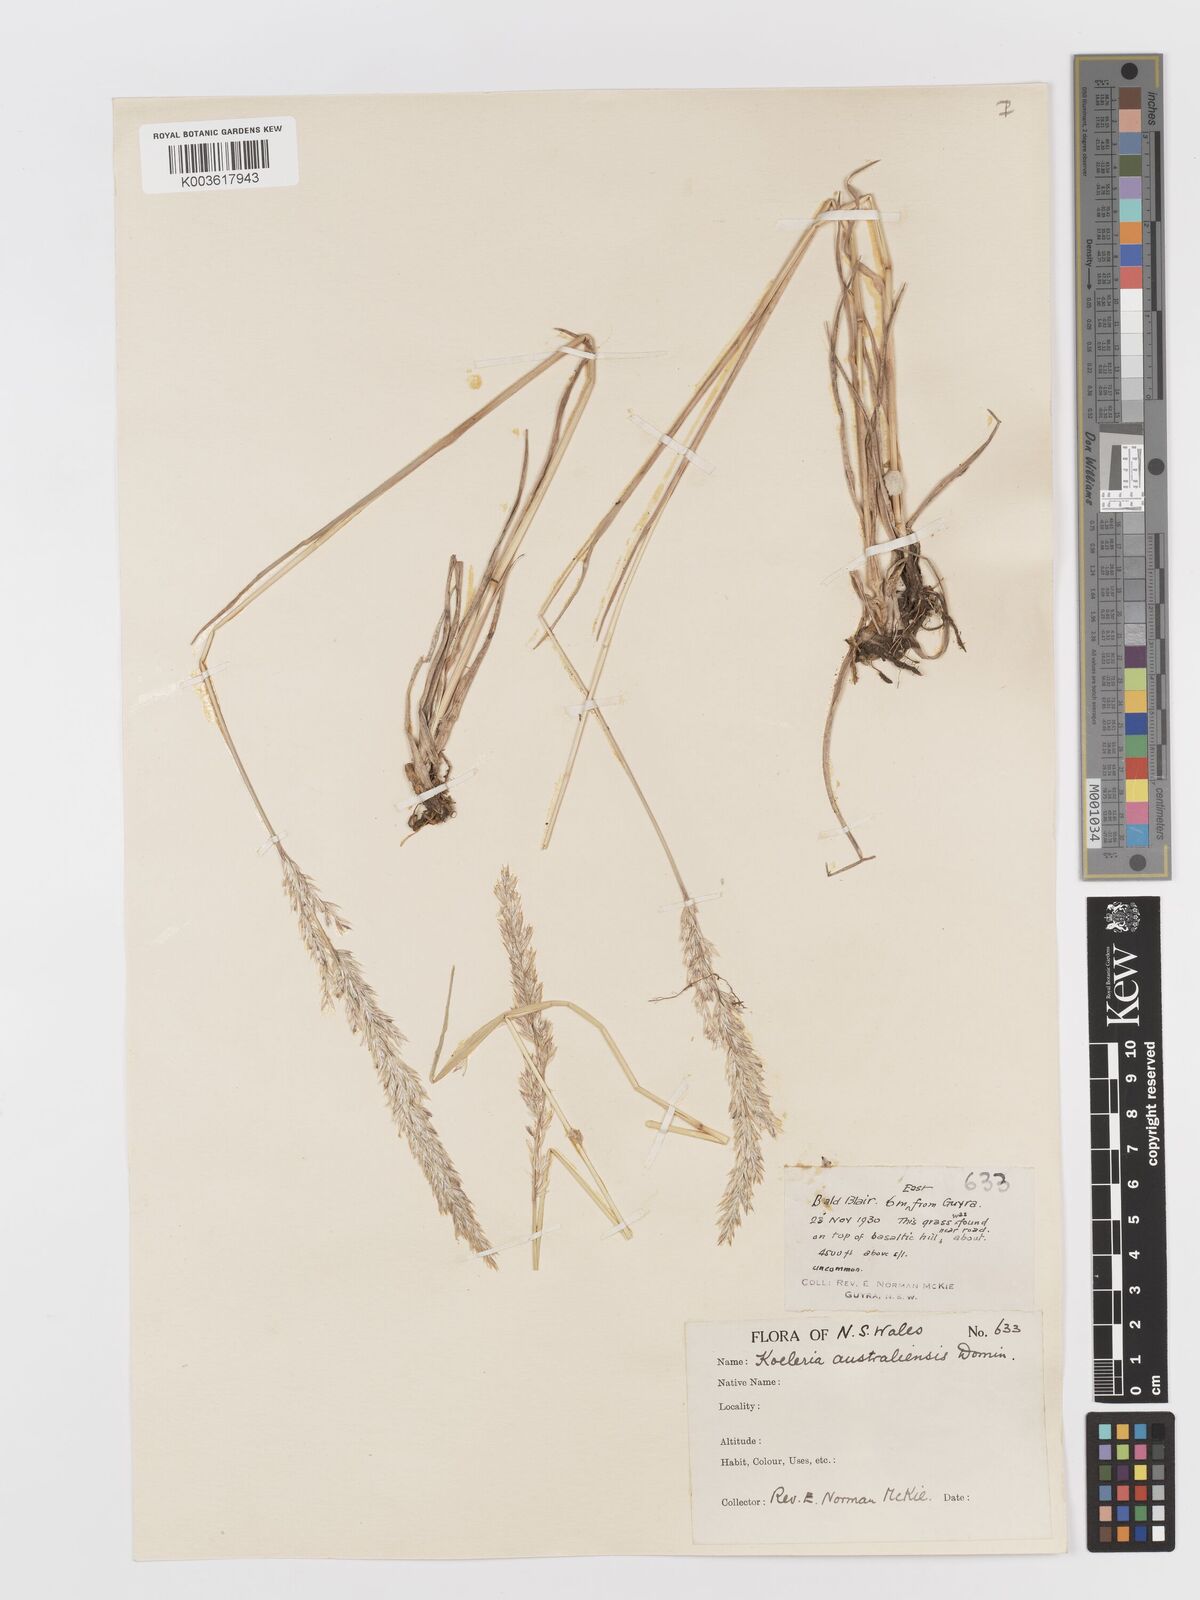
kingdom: Plantae
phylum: Tracheophyta
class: Liliopsida
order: Poales
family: Poaceae
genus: Koeleria
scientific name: Koeleria macrantha
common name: Crested hair-grass
